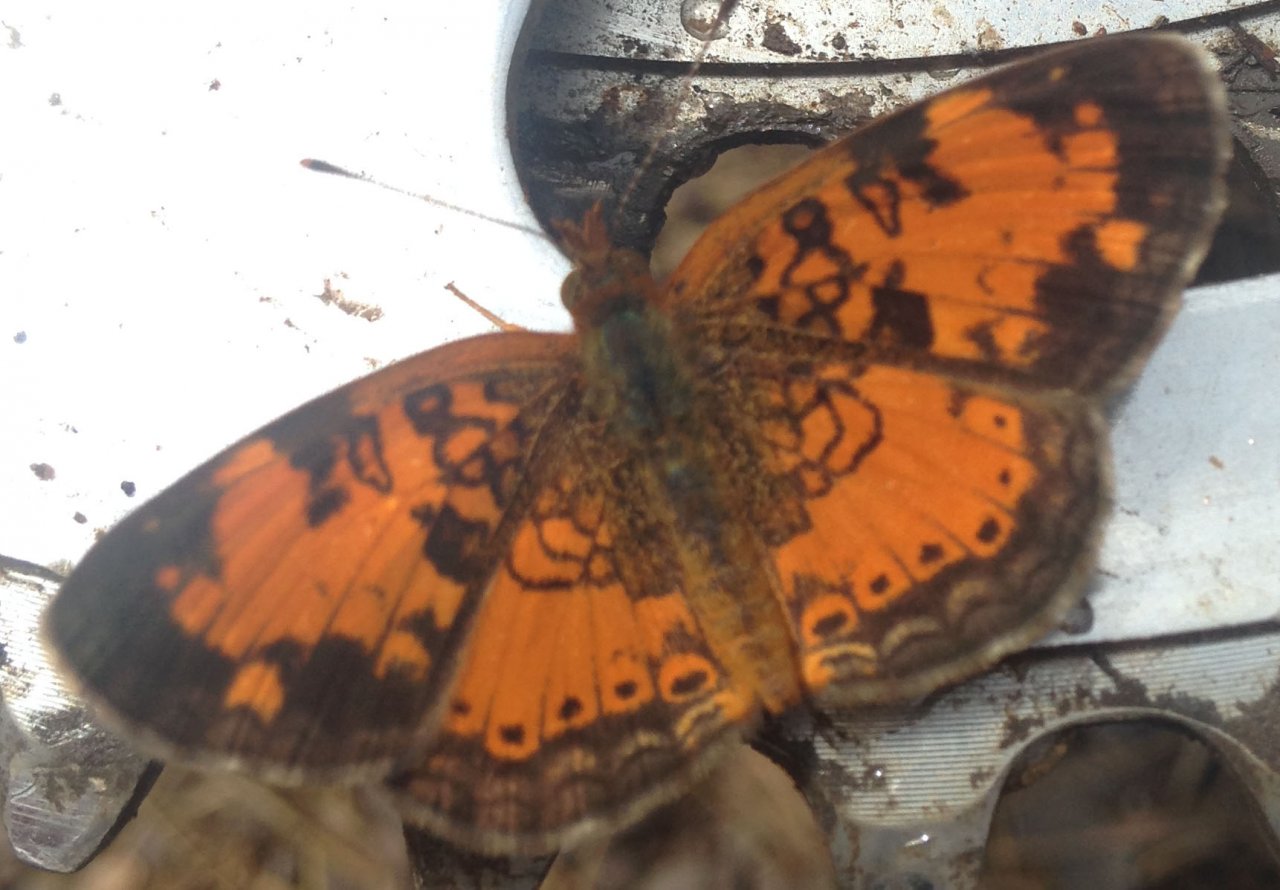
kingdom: Animalia
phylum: Arthropoda
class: Insecta
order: Lepidoptera
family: Nymphalidae
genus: Phyciodes
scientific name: Phyciodes tharos
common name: Northern Crescent
